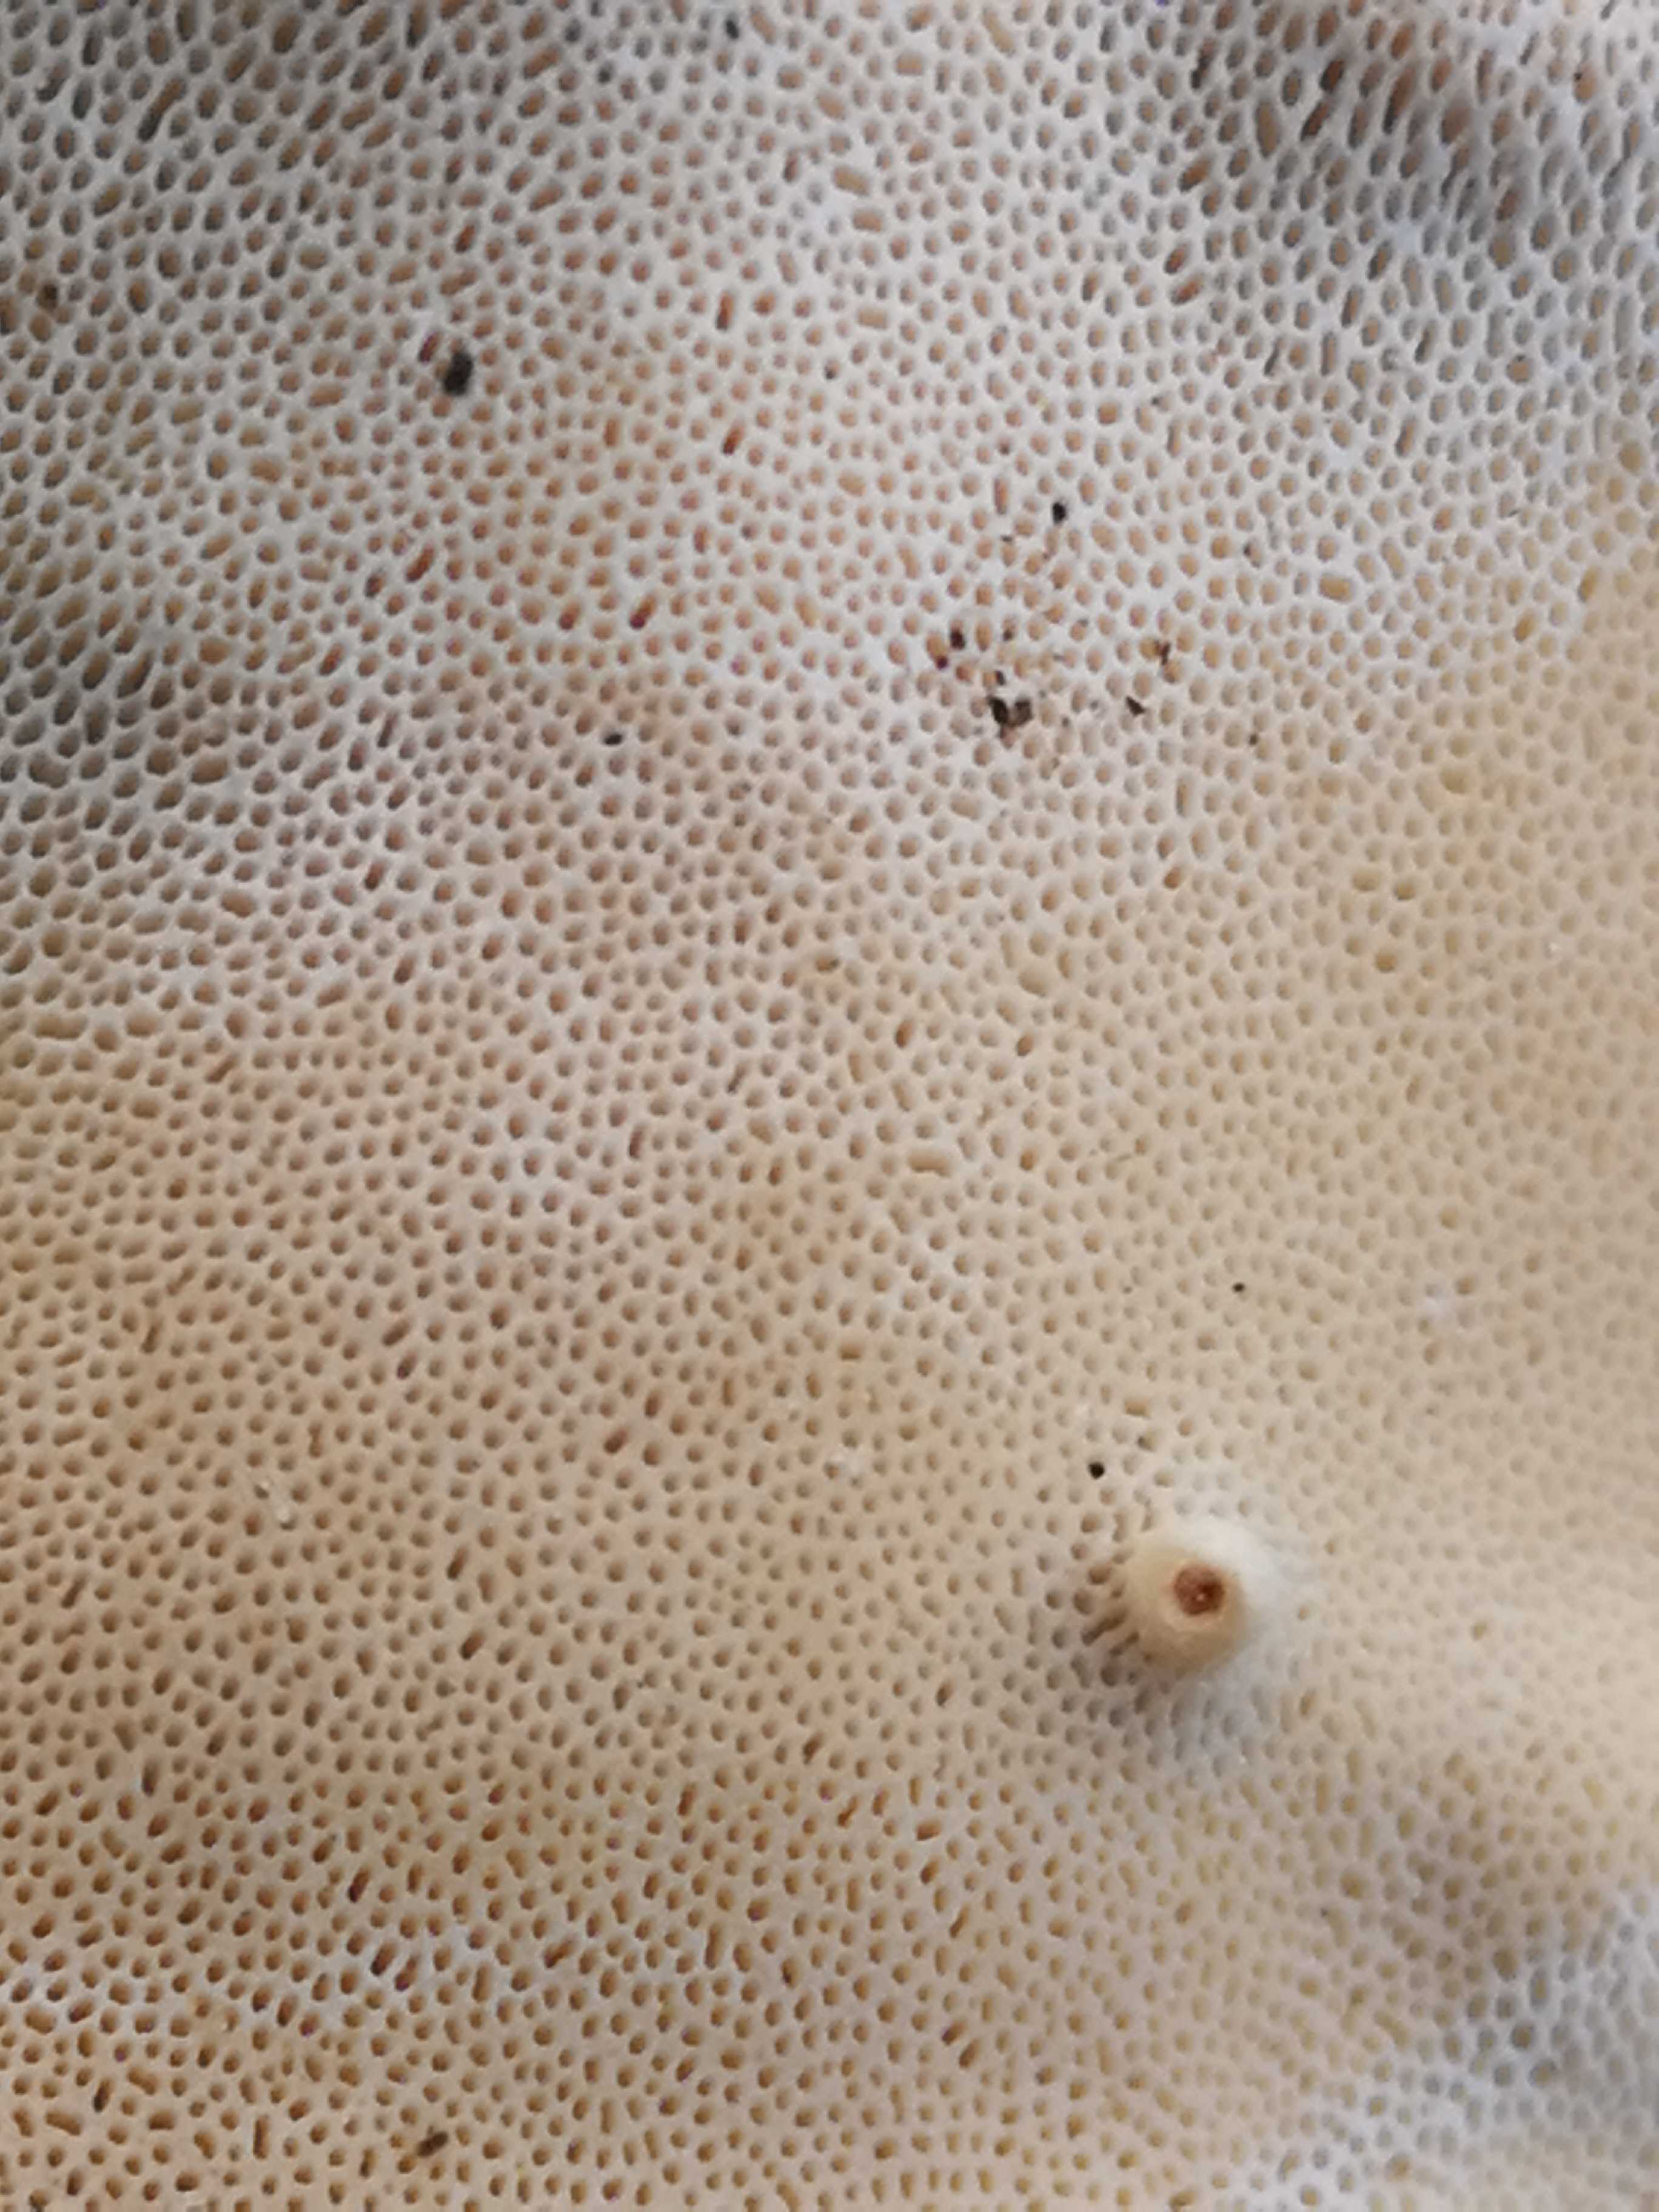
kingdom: Fungi
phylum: Basidiomycota
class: Agaricomycetes
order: Russulales
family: Bondarzewiaceae
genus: Heterobasidion
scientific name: Heterobasidion annosum
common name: almindelig rodfordærver
